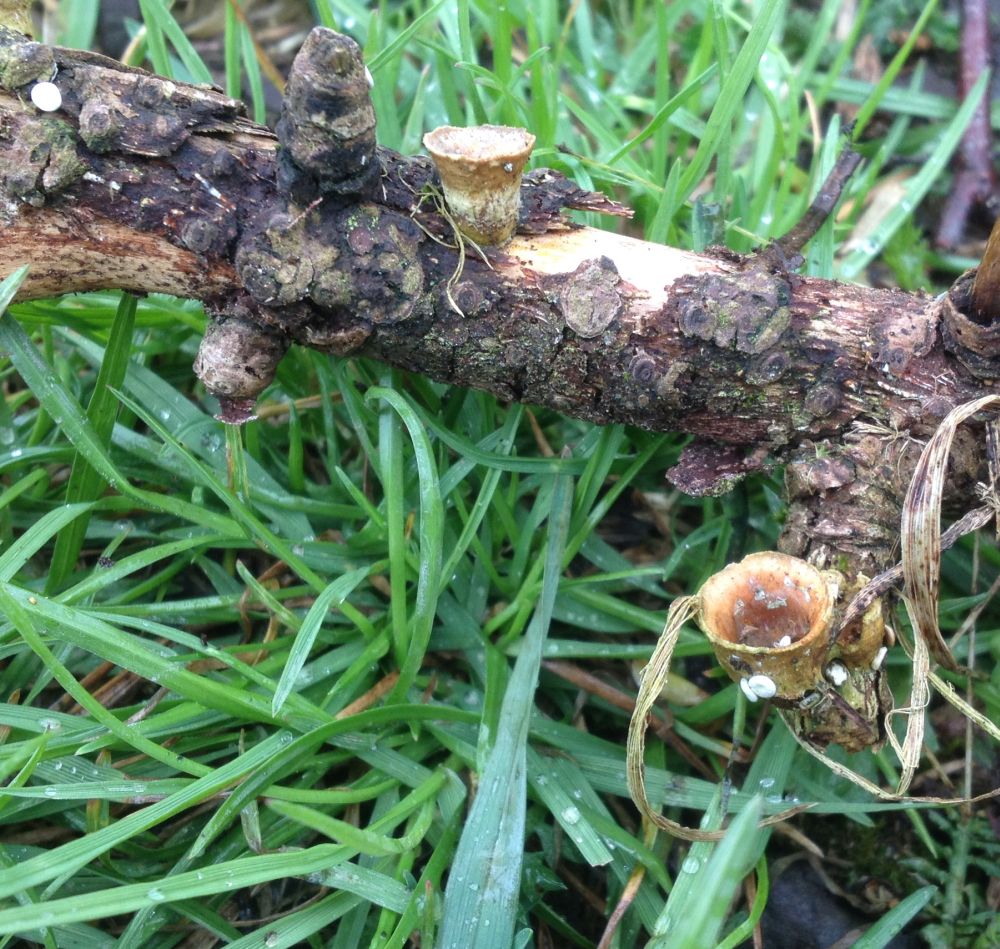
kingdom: Fungi
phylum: Basidiomycota
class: Agaricomycetes
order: Agaricales
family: Nidulariaceae
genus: Crucibulum
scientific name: Crucibulum crucibuliforme
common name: krukkesvamp
